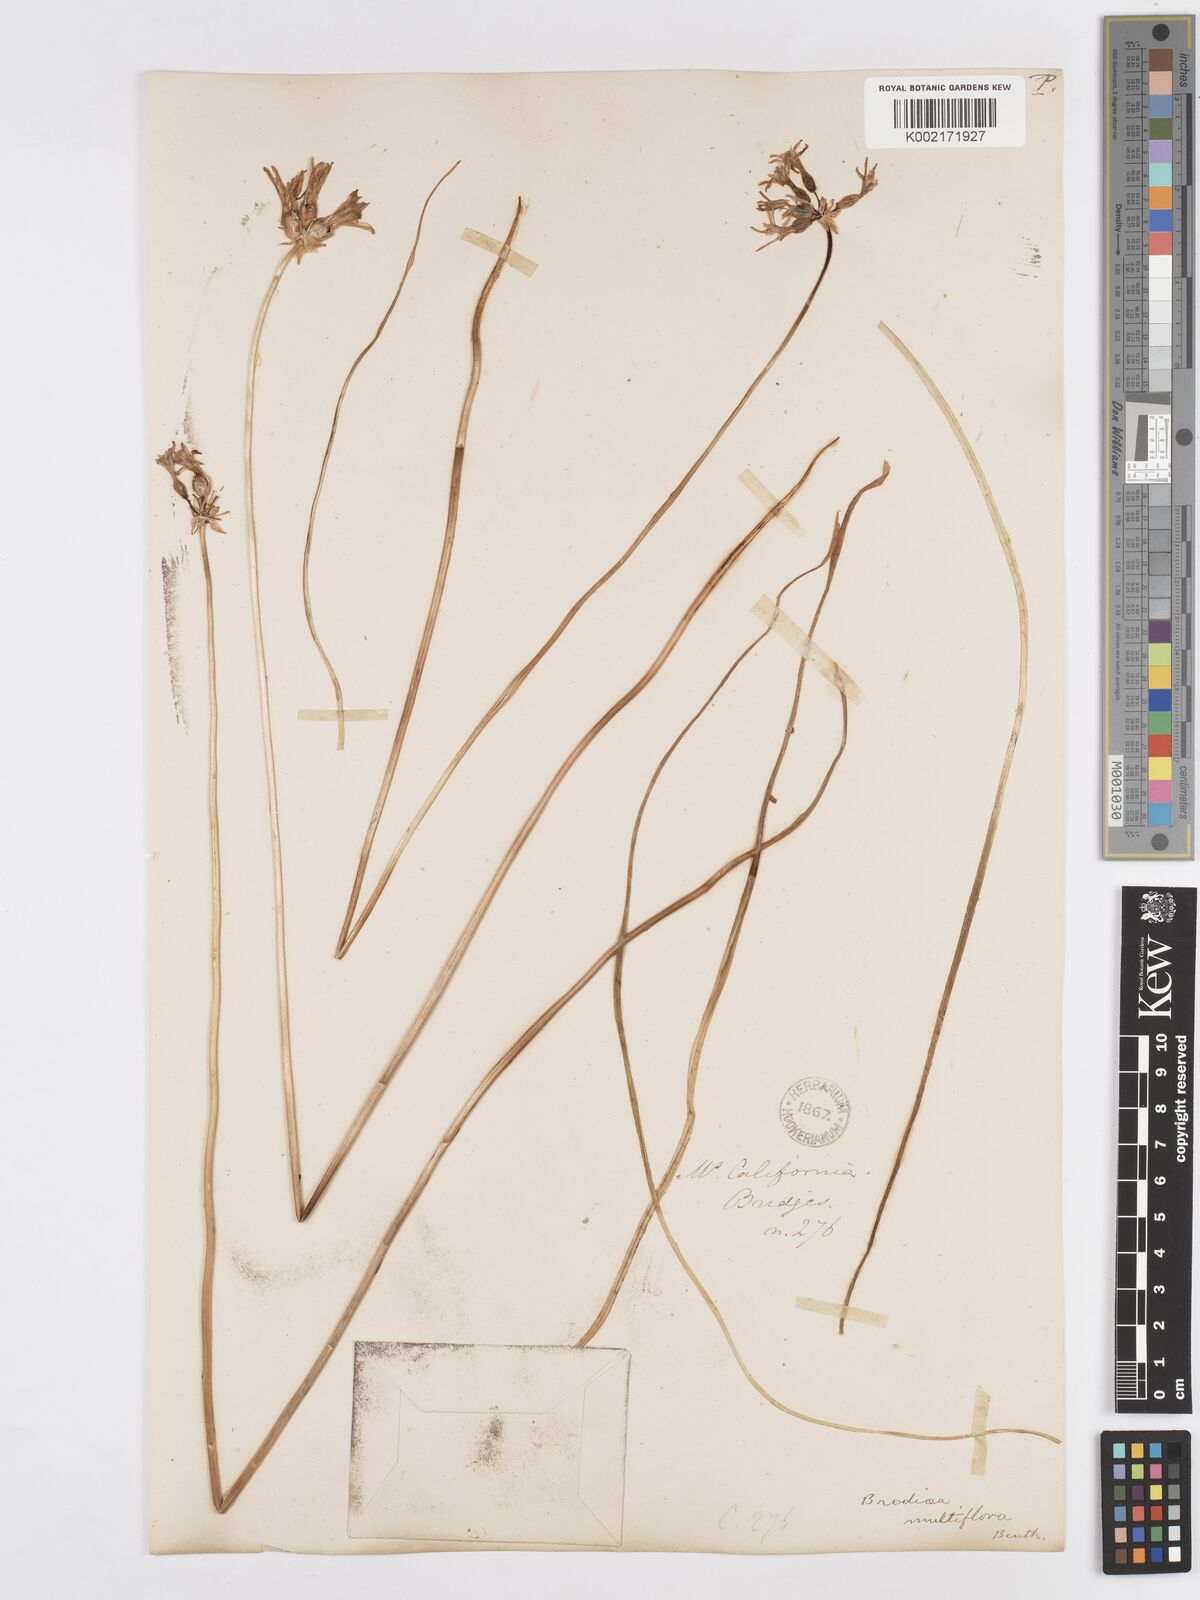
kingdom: Plantae
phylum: Tracheophyta
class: Liliopsida
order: Asparagales
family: Asparagaceae
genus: Dichelostemma
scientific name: Dichelostemma multiflorum
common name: Round-tooth ookow
